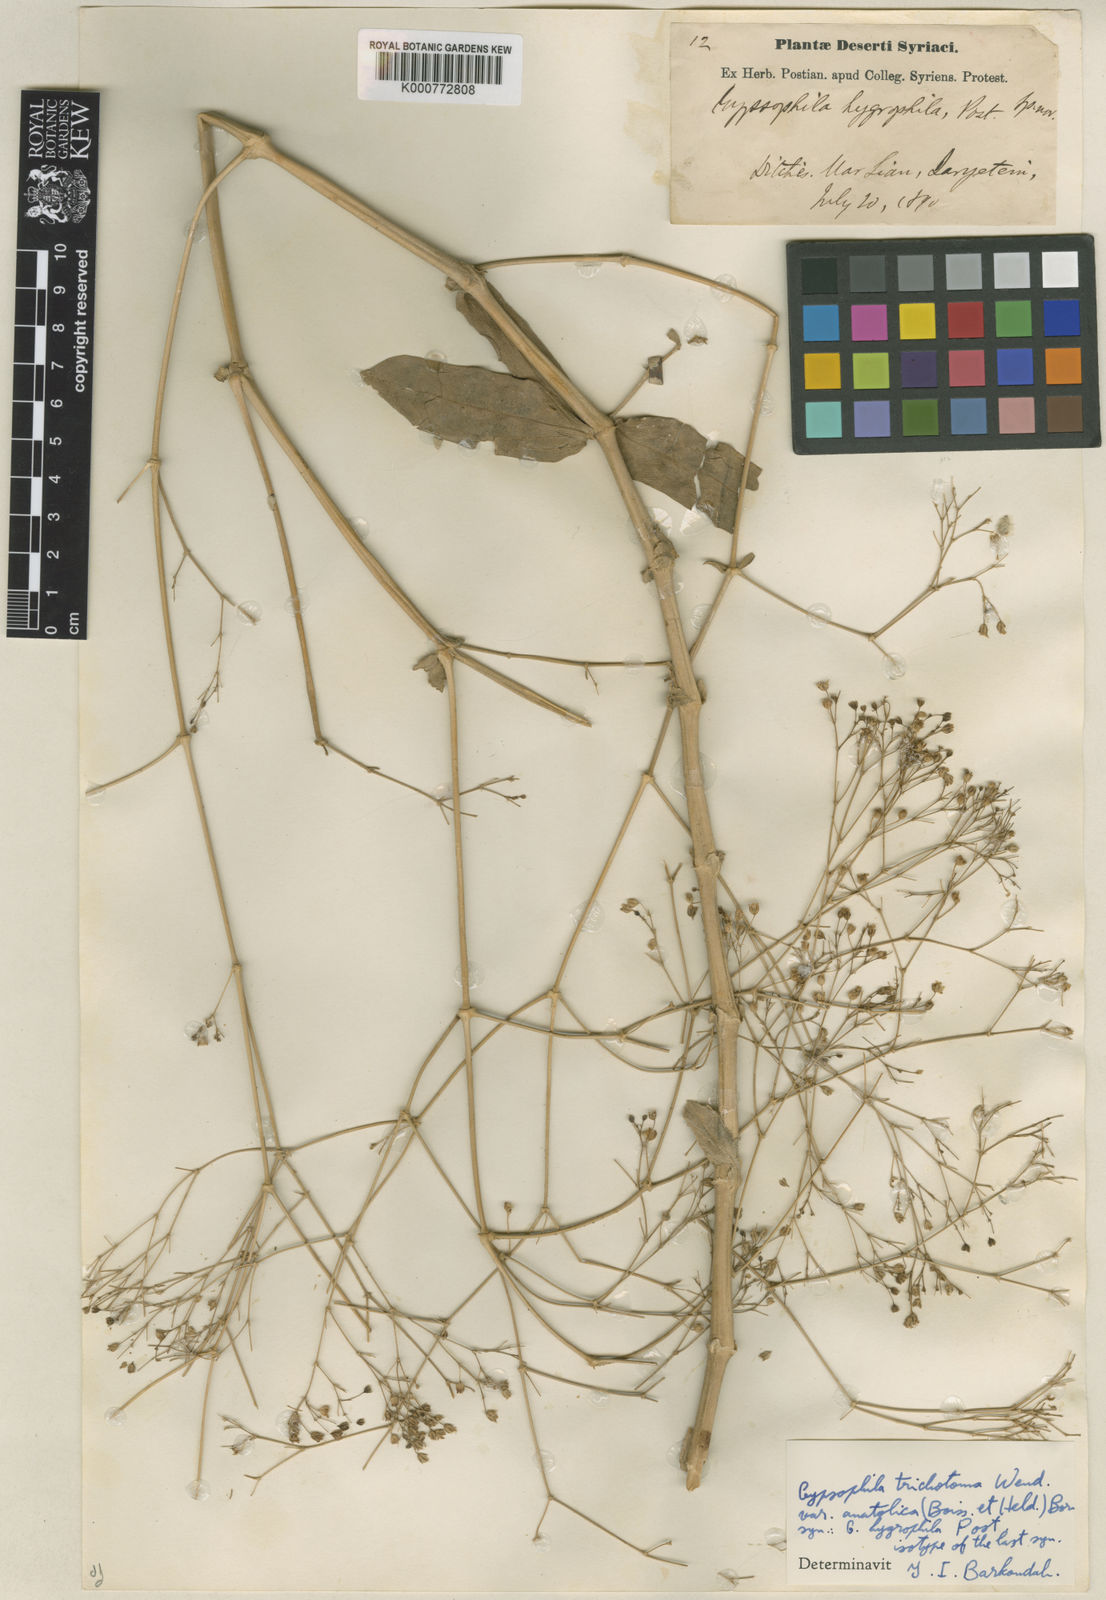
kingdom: Plantae
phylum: Tracheophyta
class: Magnoliopsida
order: Caryophyllales
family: Caryophyllaceae
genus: Gypsophila
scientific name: Gypsophila perfoliata
